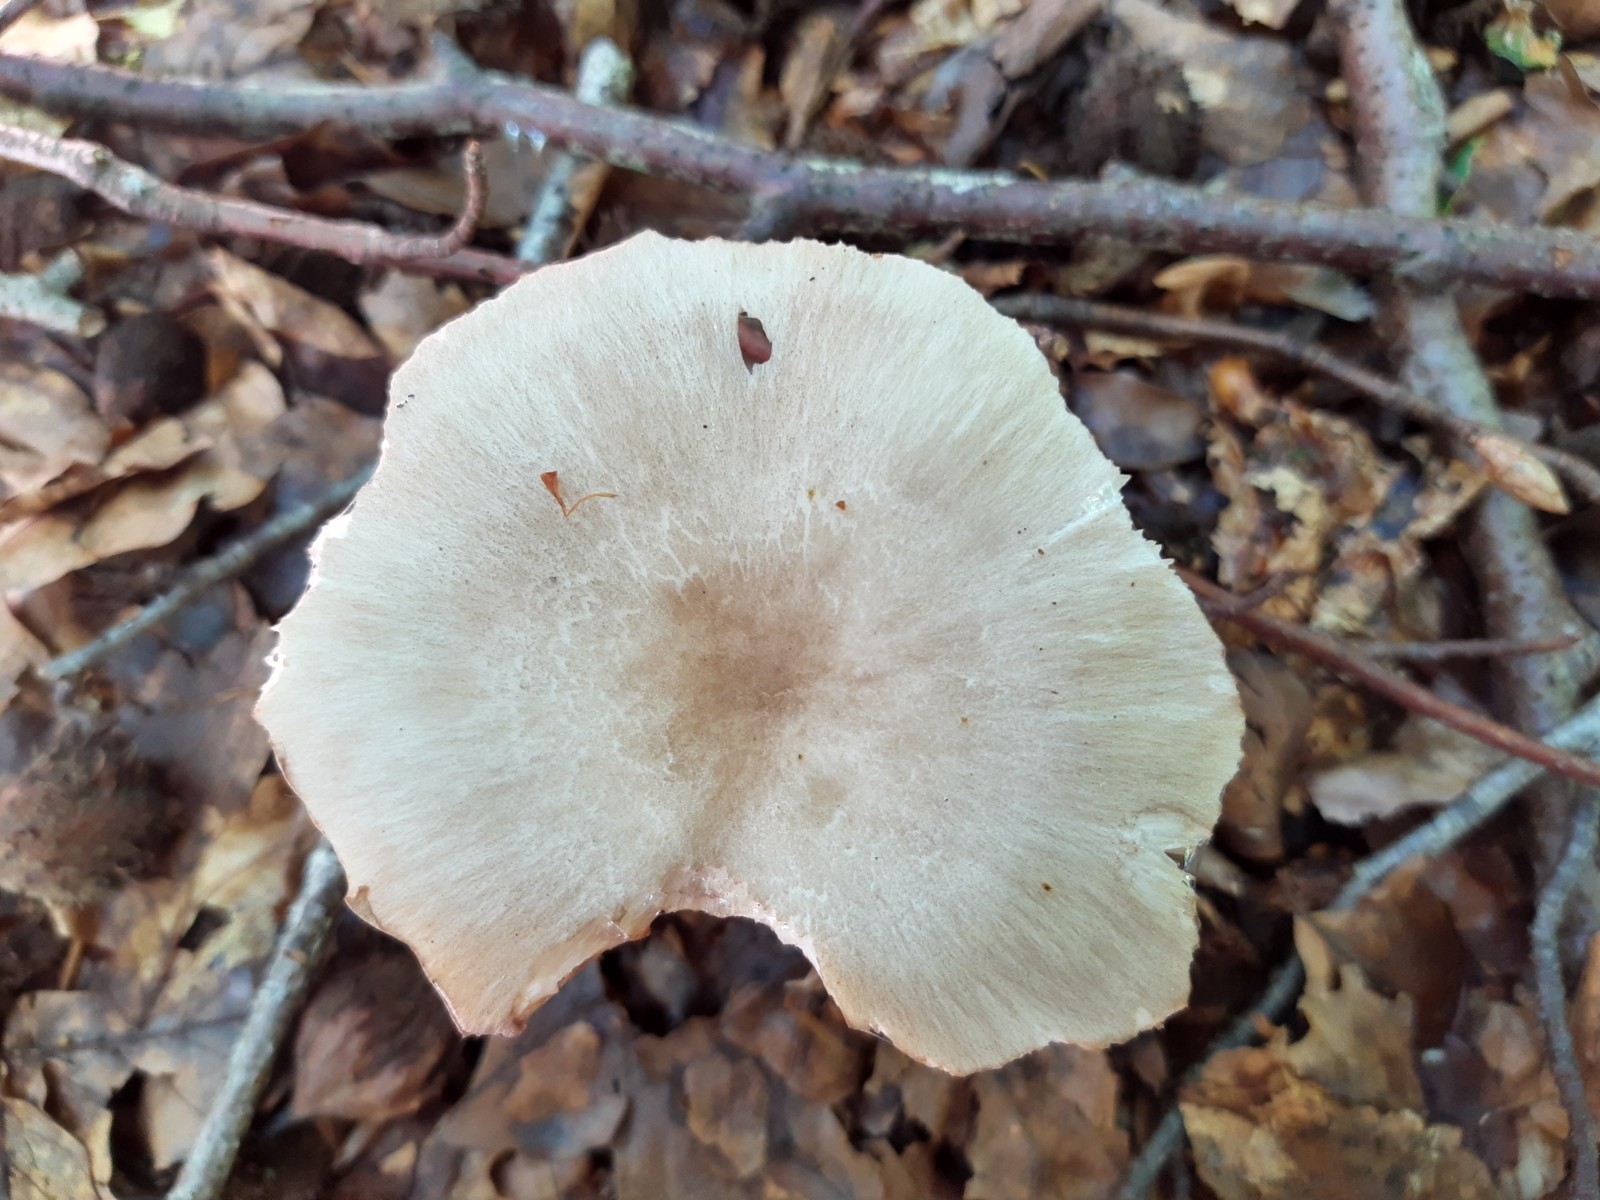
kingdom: Fungi
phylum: Basidiomycota
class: Agaricomycetes
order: Agaricales
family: Tricholomataceae
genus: Megacollybia
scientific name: Megacollybia platyphylla
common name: bredbladet væbnerhat
